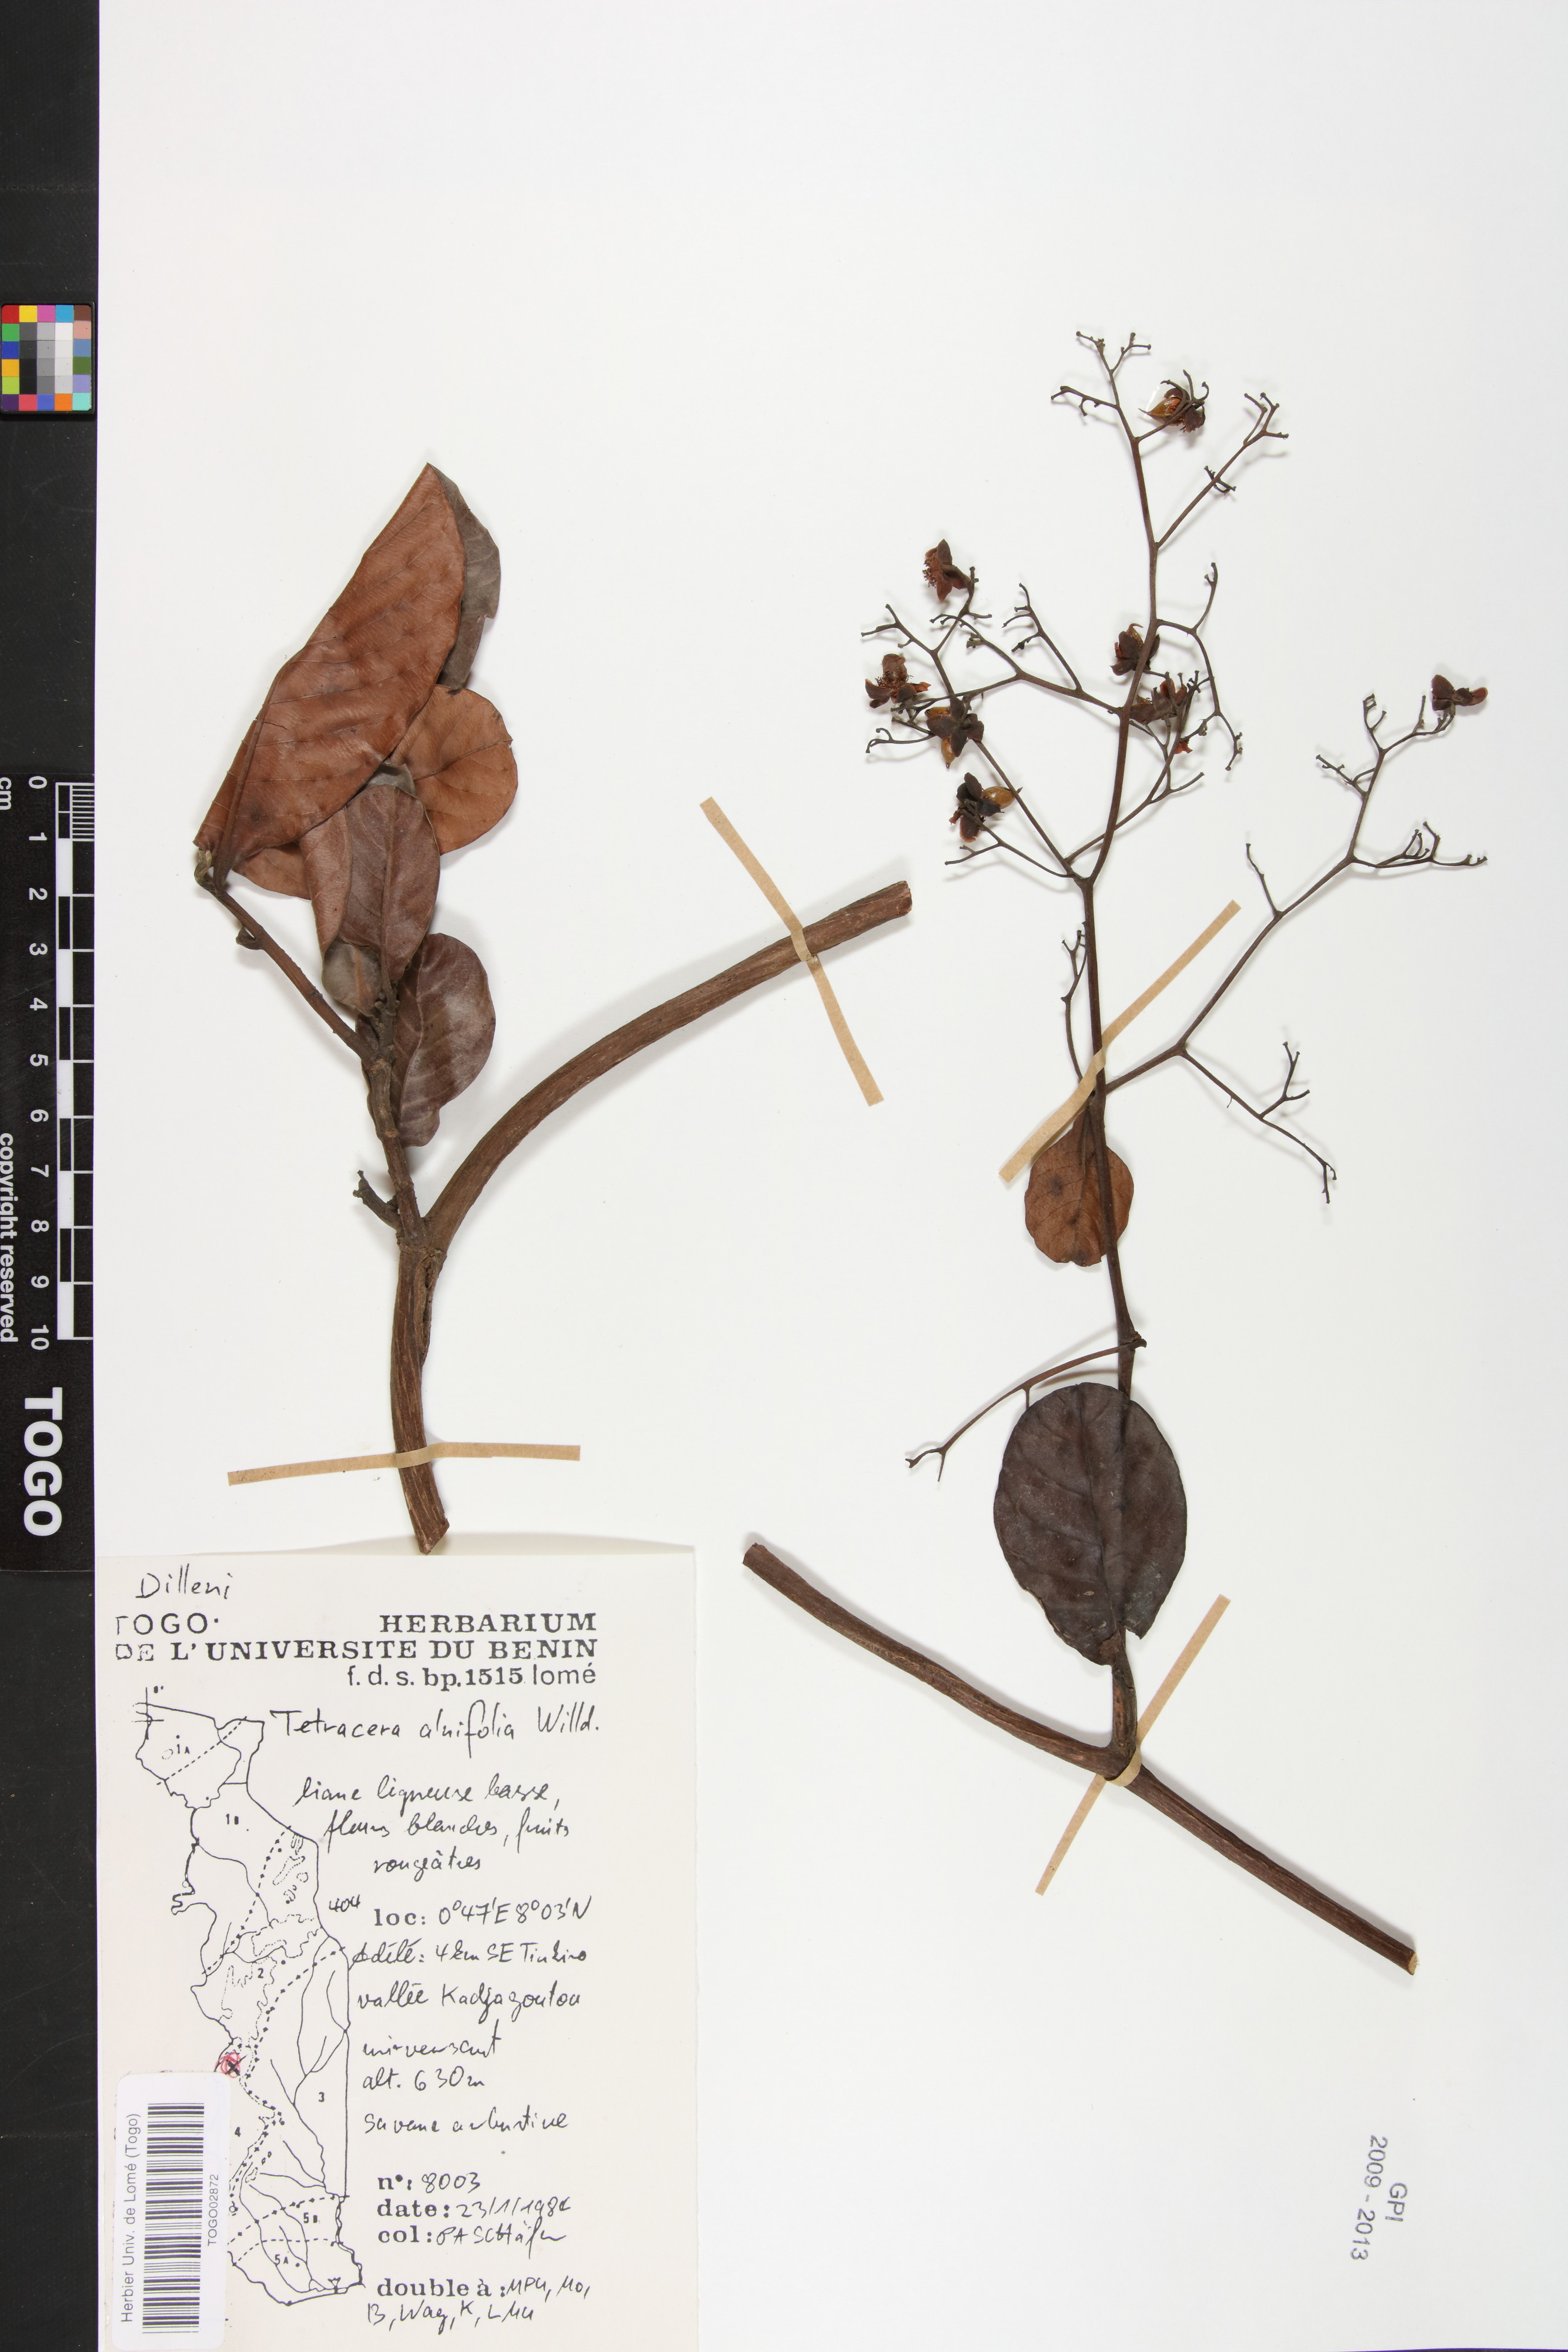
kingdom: Plantae
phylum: Tracheophyta
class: Magnoliopsida
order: Dilleniales
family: Dilleniaceae
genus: Tetracera
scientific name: Tetracera alnifolia
